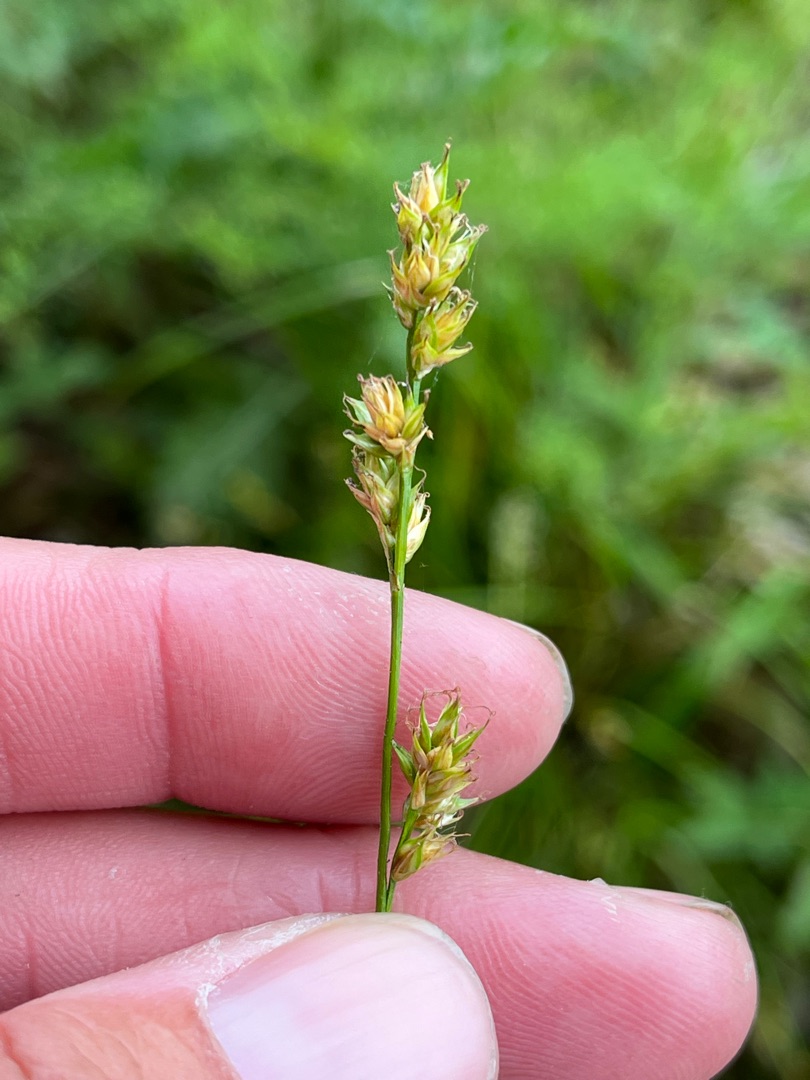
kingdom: Plantae
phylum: Tracheophyta
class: Liliopsida
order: Poales
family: Cyperaceae
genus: Carex
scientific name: Carex divulsa
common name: Mellembrudt star
